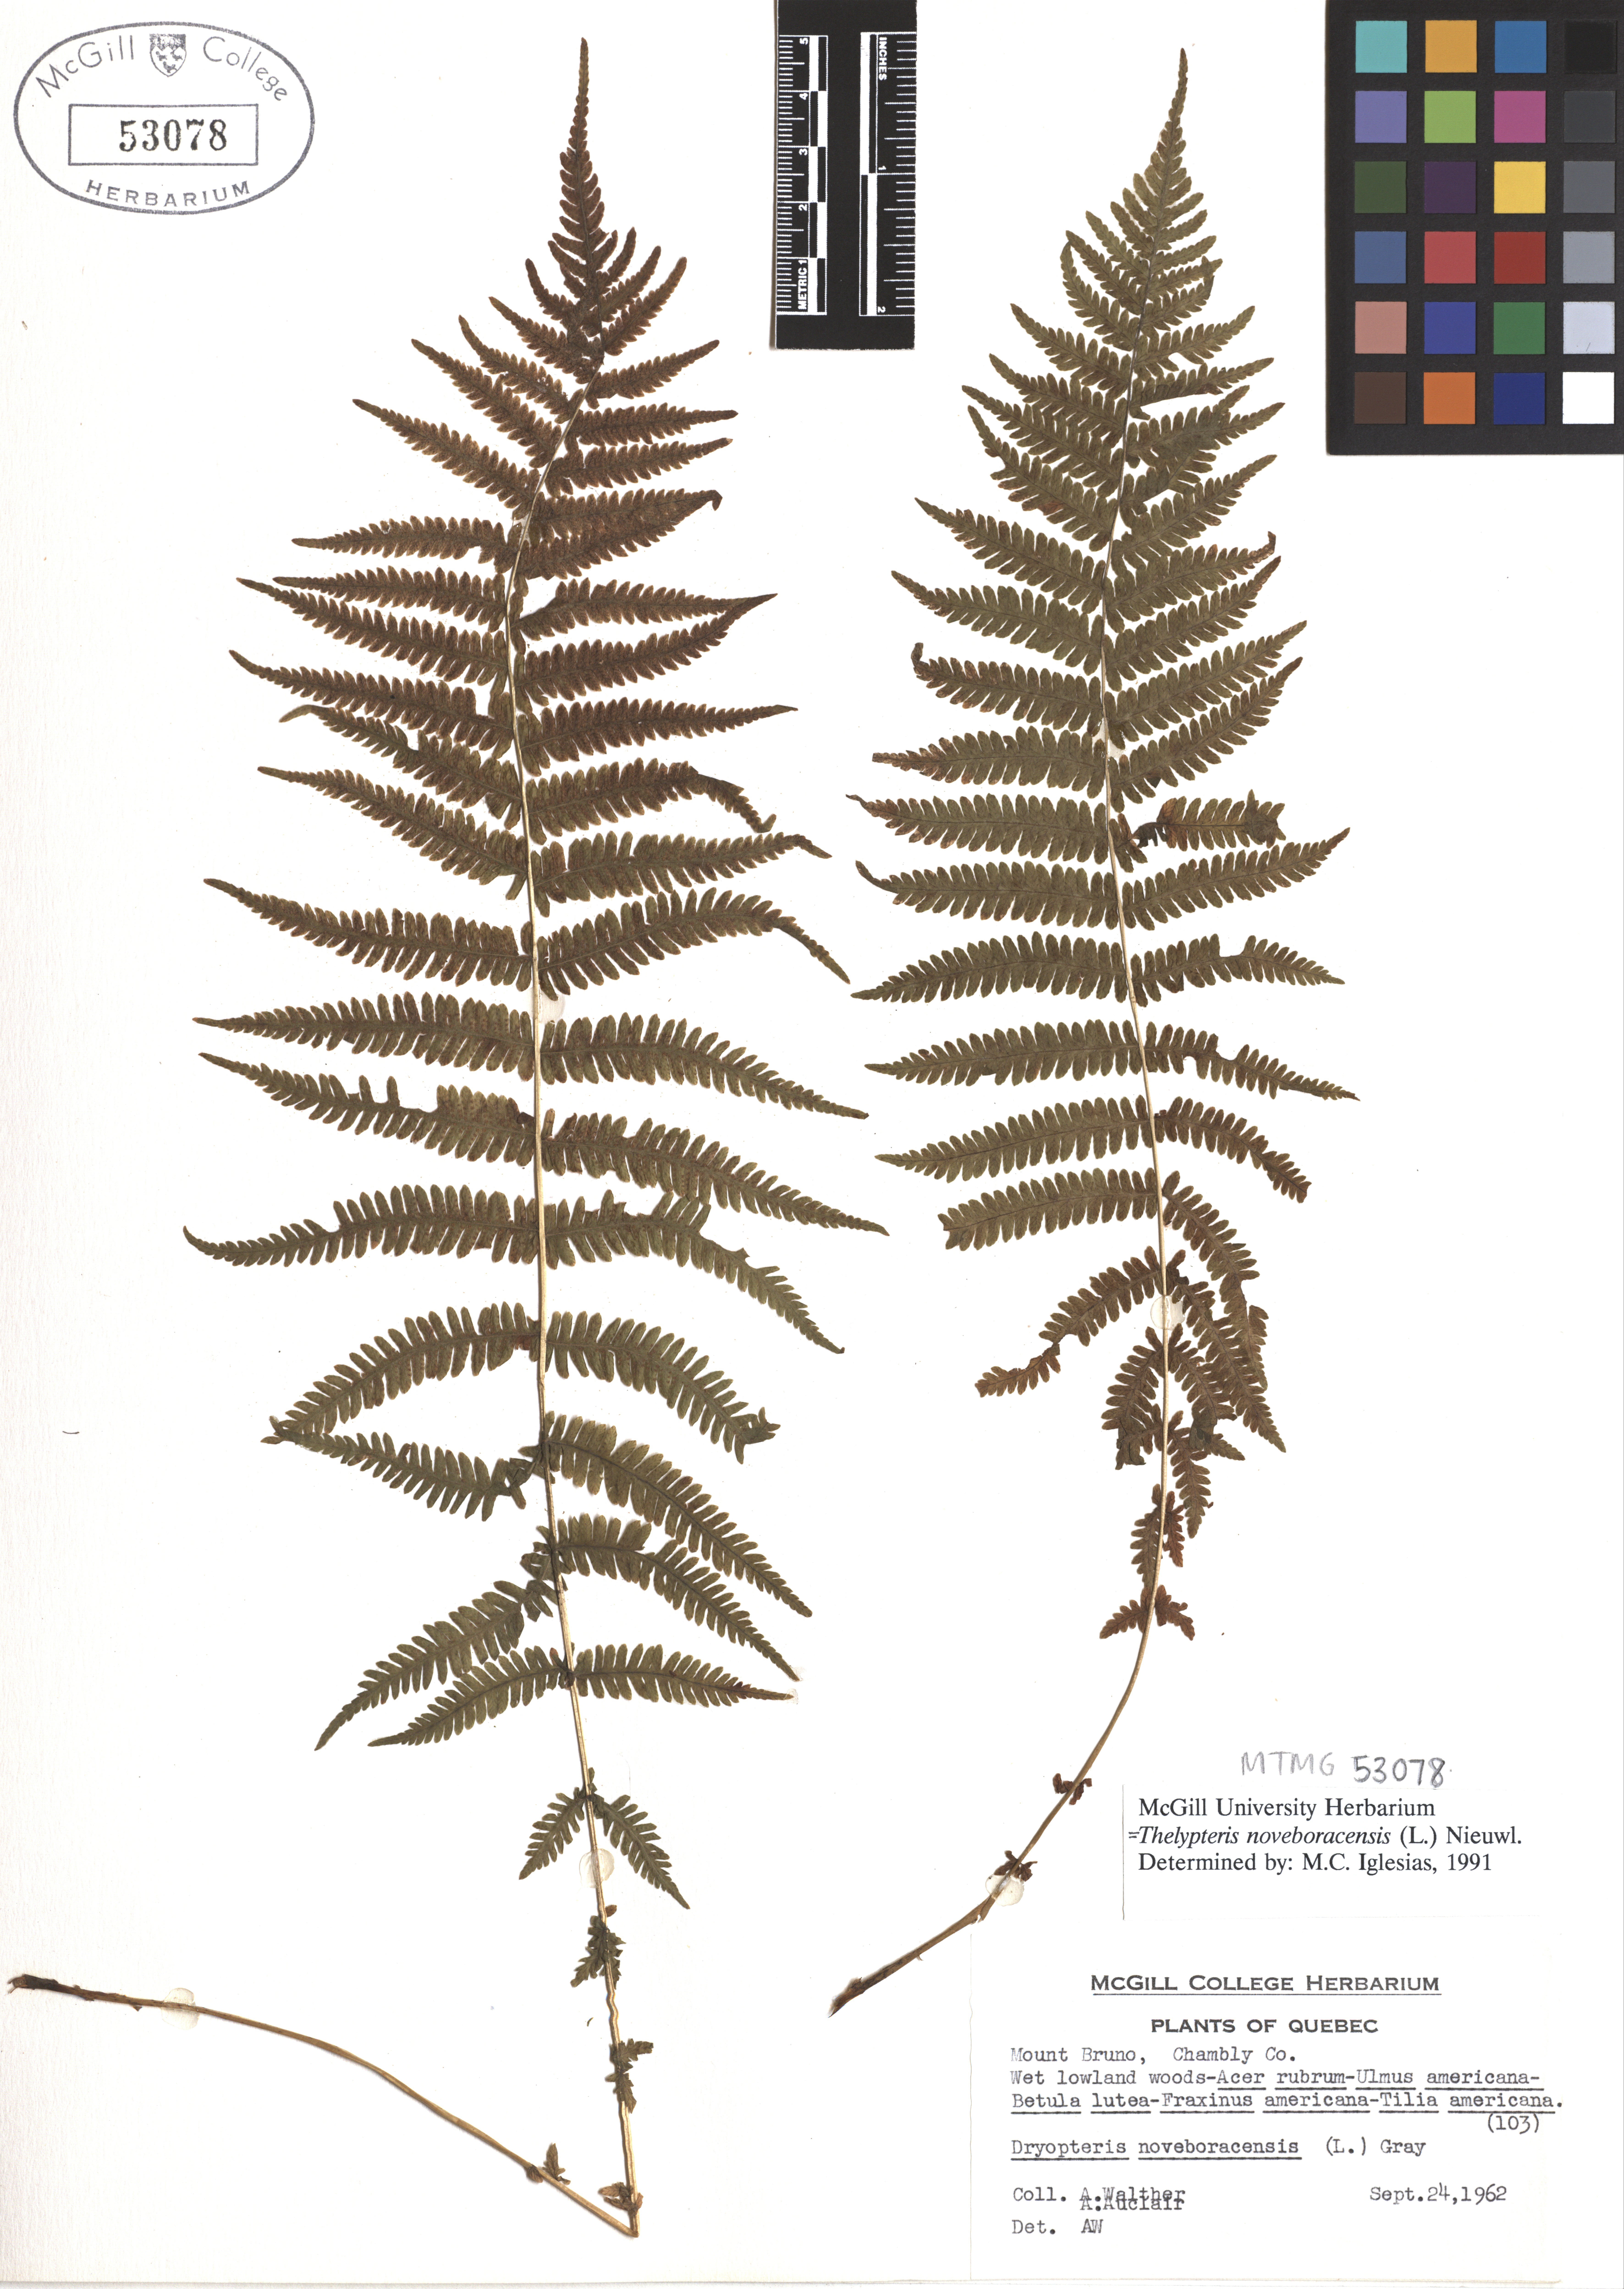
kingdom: Plantae
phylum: Tracheophyta
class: Polypodiopsida
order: Polypodiales
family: Thelypteridaceae
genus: Amauropelta
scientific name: Amauropelta noveboracensis
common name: New york fern
